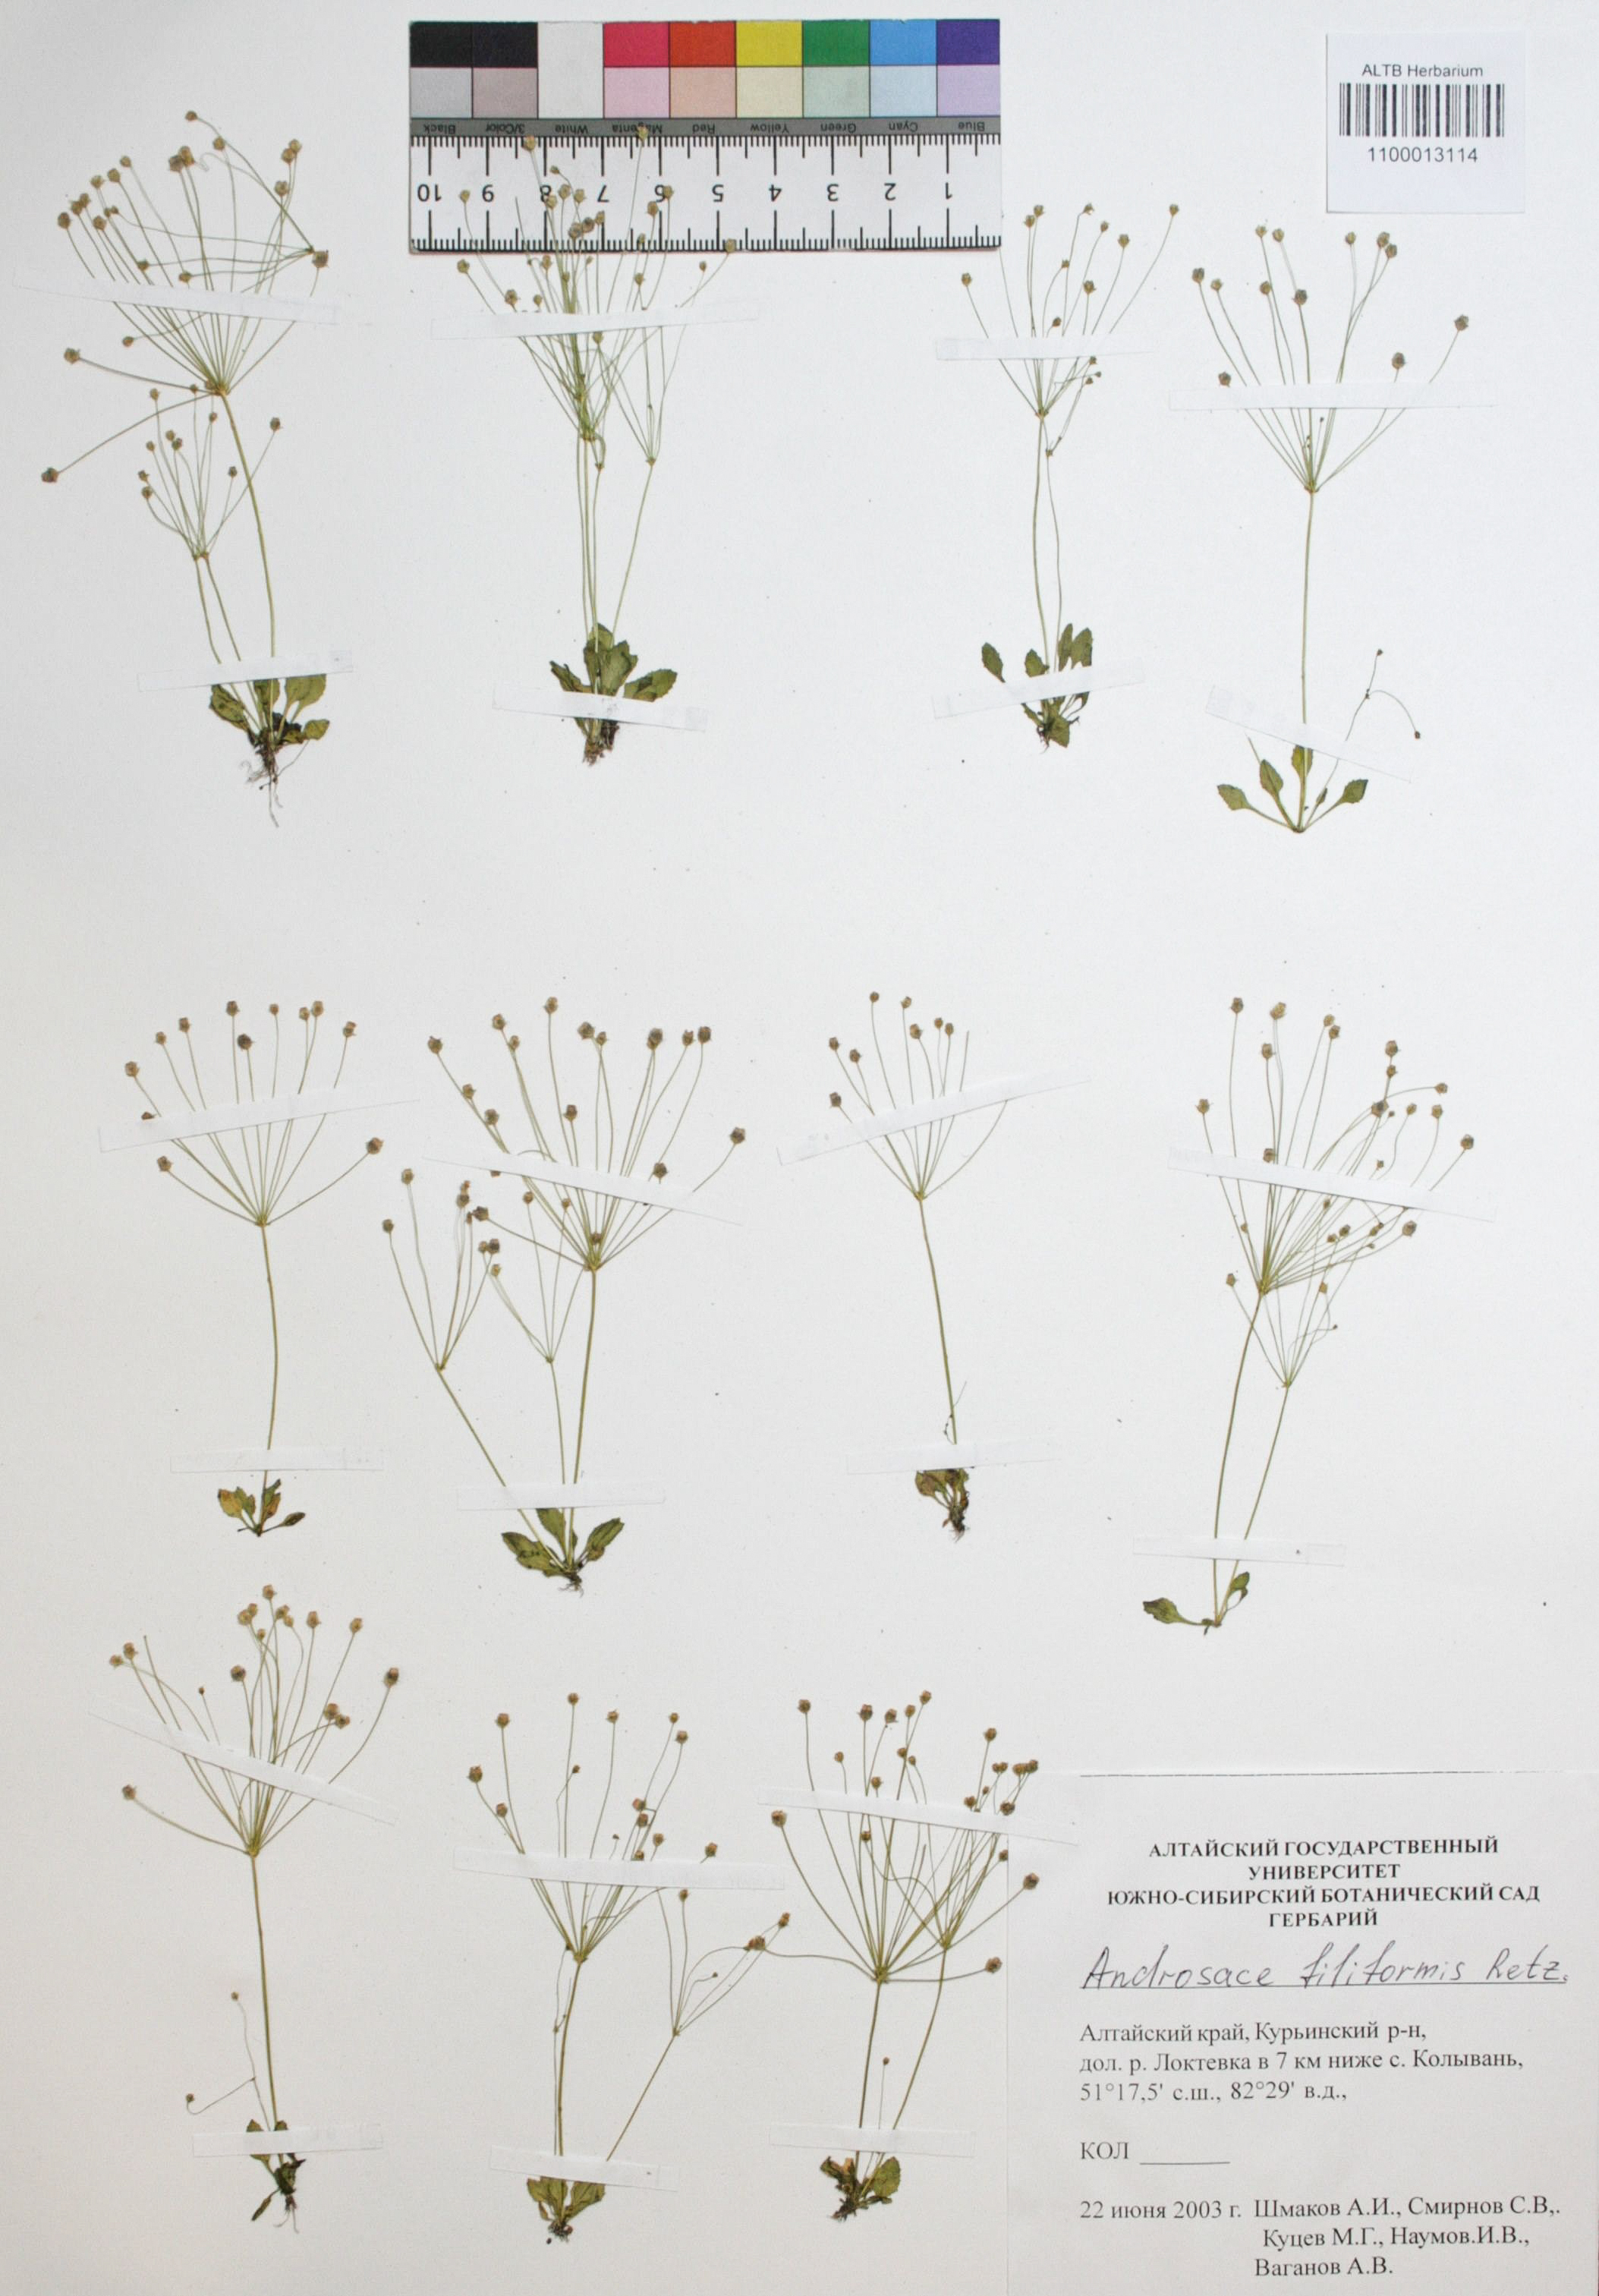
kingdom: Plantae
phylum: Tracheophyta
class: Magnoliopsida
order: Ericales
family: Primulaceae
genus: Androsace
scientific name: Androsace filiformis
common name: Filiform rock jasmine
